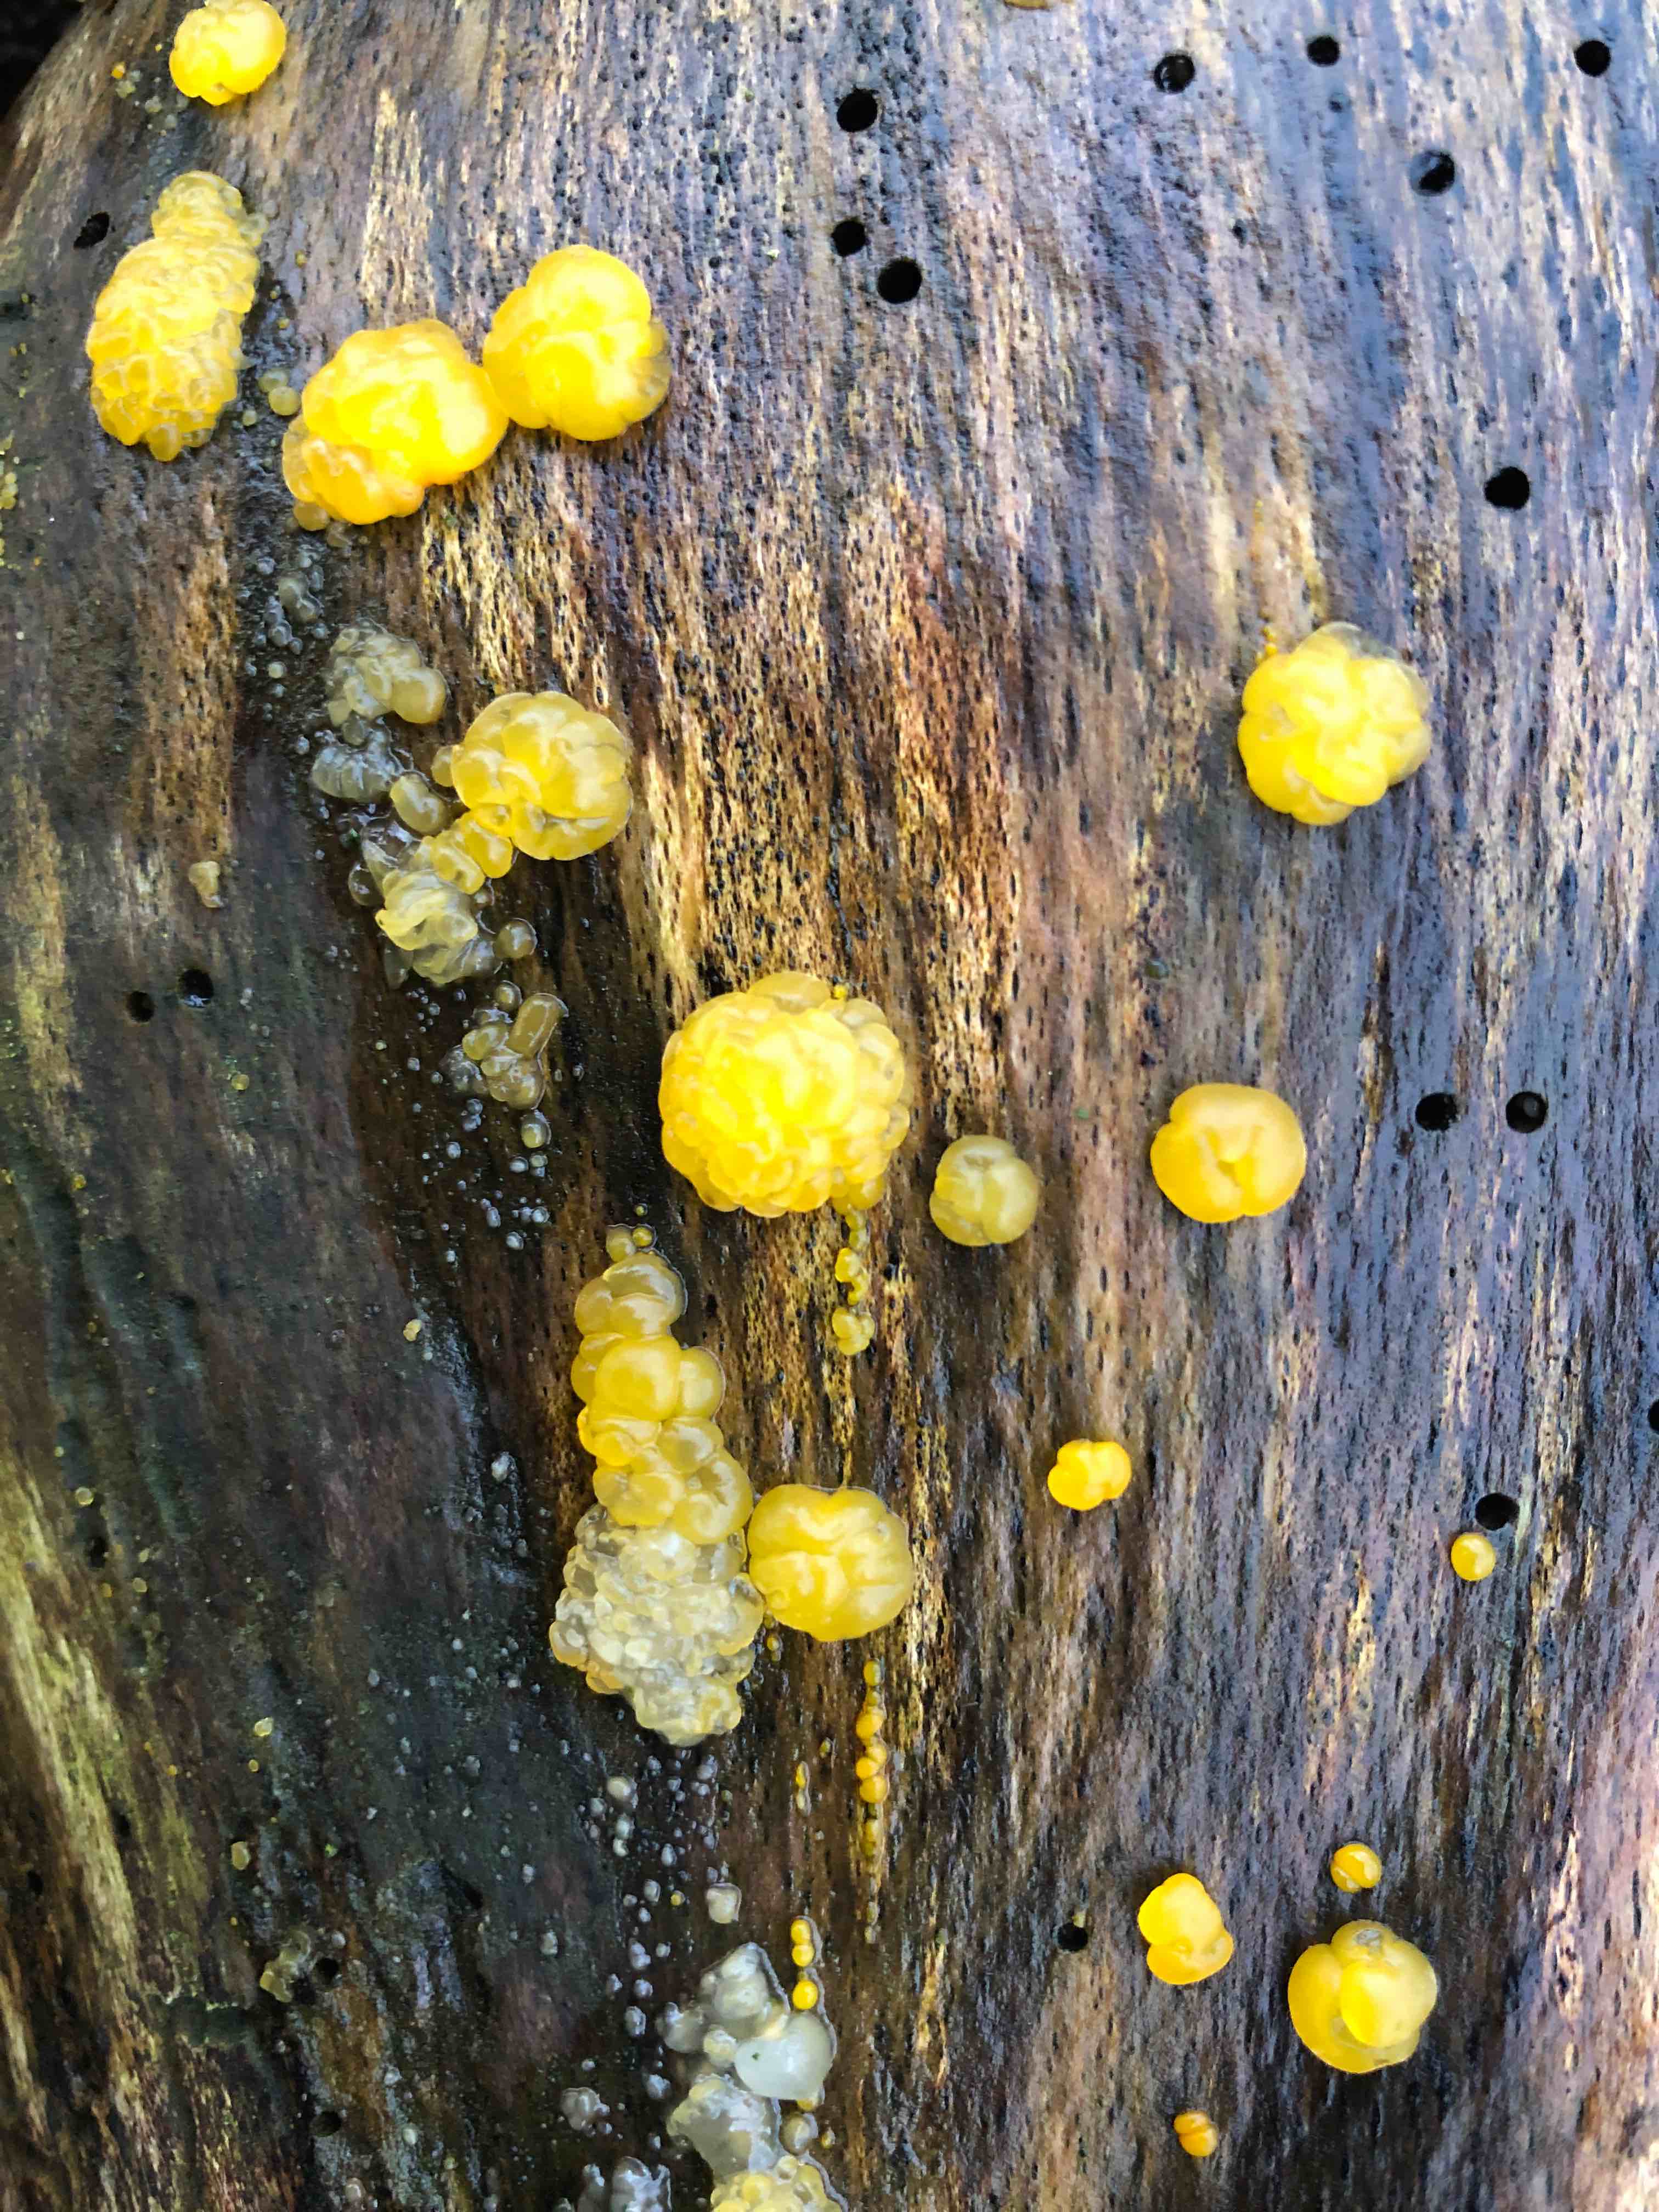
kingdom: Fungi
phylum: Basidiomycota
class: Dacrymycetes
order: Dacrymycetales
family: Dacrymycetaceae
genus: Dacrymyces
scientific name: Dacrymyces lacrymalis
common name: rynket tåresvamp
